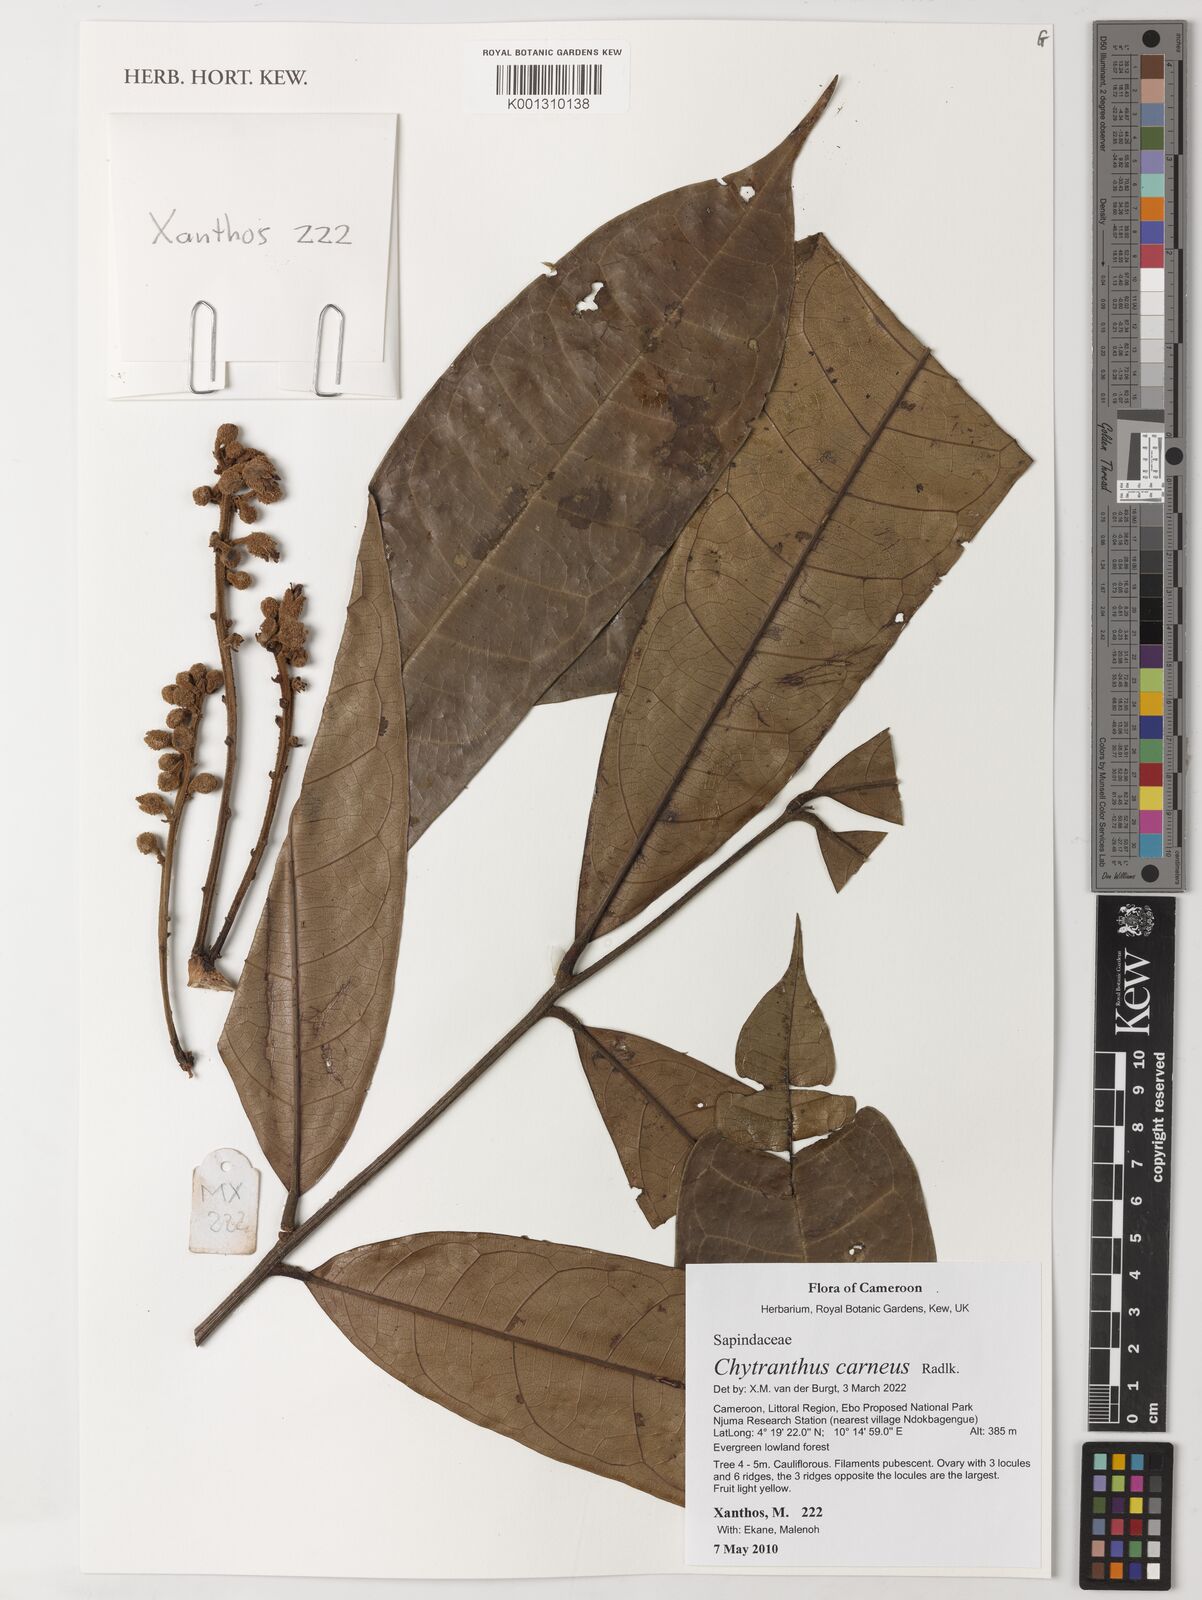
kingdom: Plantae
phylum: Tracheophyta
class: Magnoliopsida
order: Sapindales
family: Sapindaceae
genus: Chytranthus
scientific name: Chytranthus carneus
